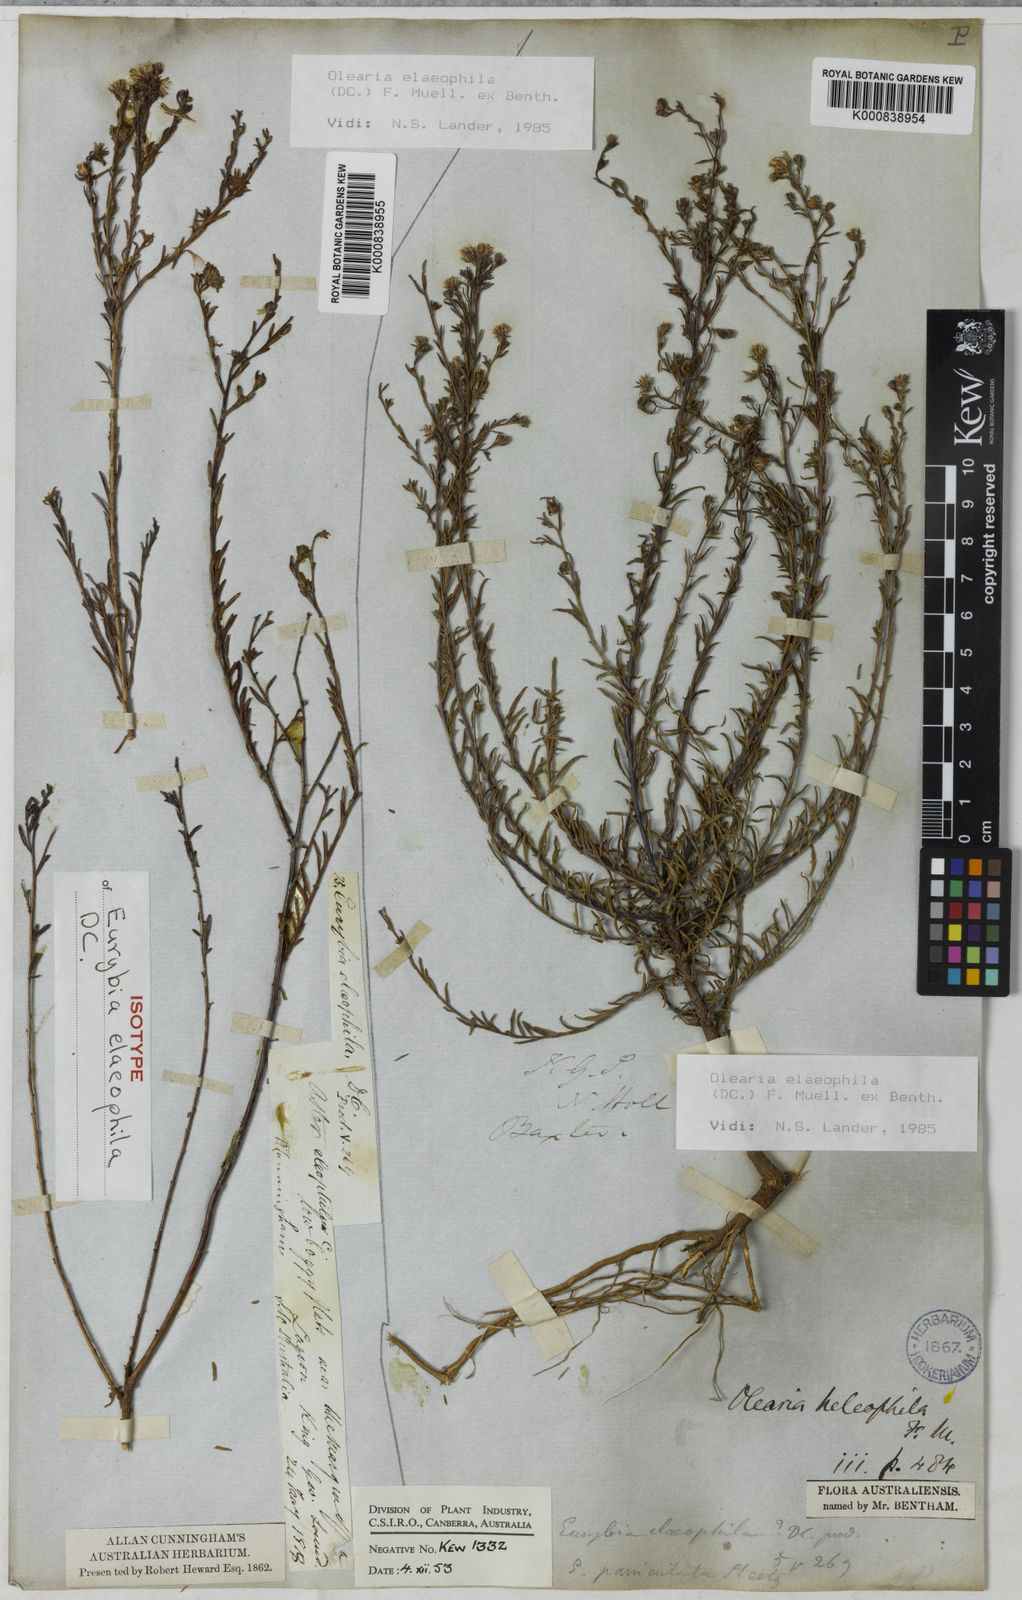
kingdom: Plantae
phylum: Tracheophyta
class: Magnoliopsida
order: Asterales
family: Asteraceae
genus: Olearia
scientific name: Olearia elaeophila
